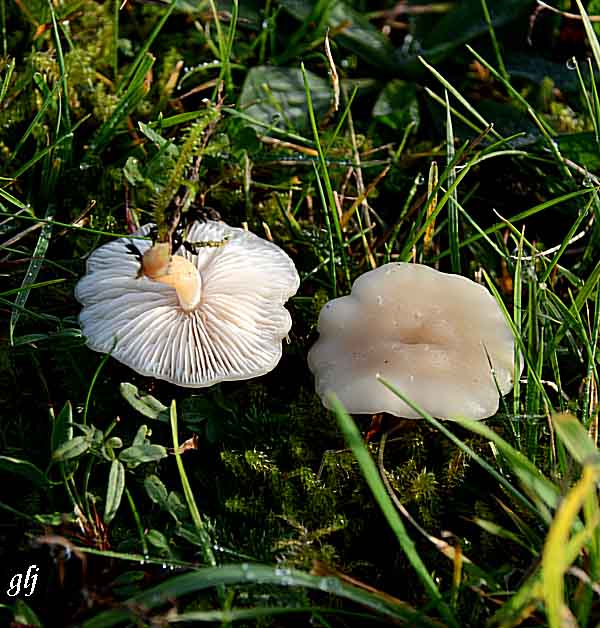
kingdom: Fungi
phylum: Basidiomycota
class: Agaricomycetes
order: Agaricales
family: Tricholomataceae
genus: Clitocybe
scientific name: Clitocybe agrestis
